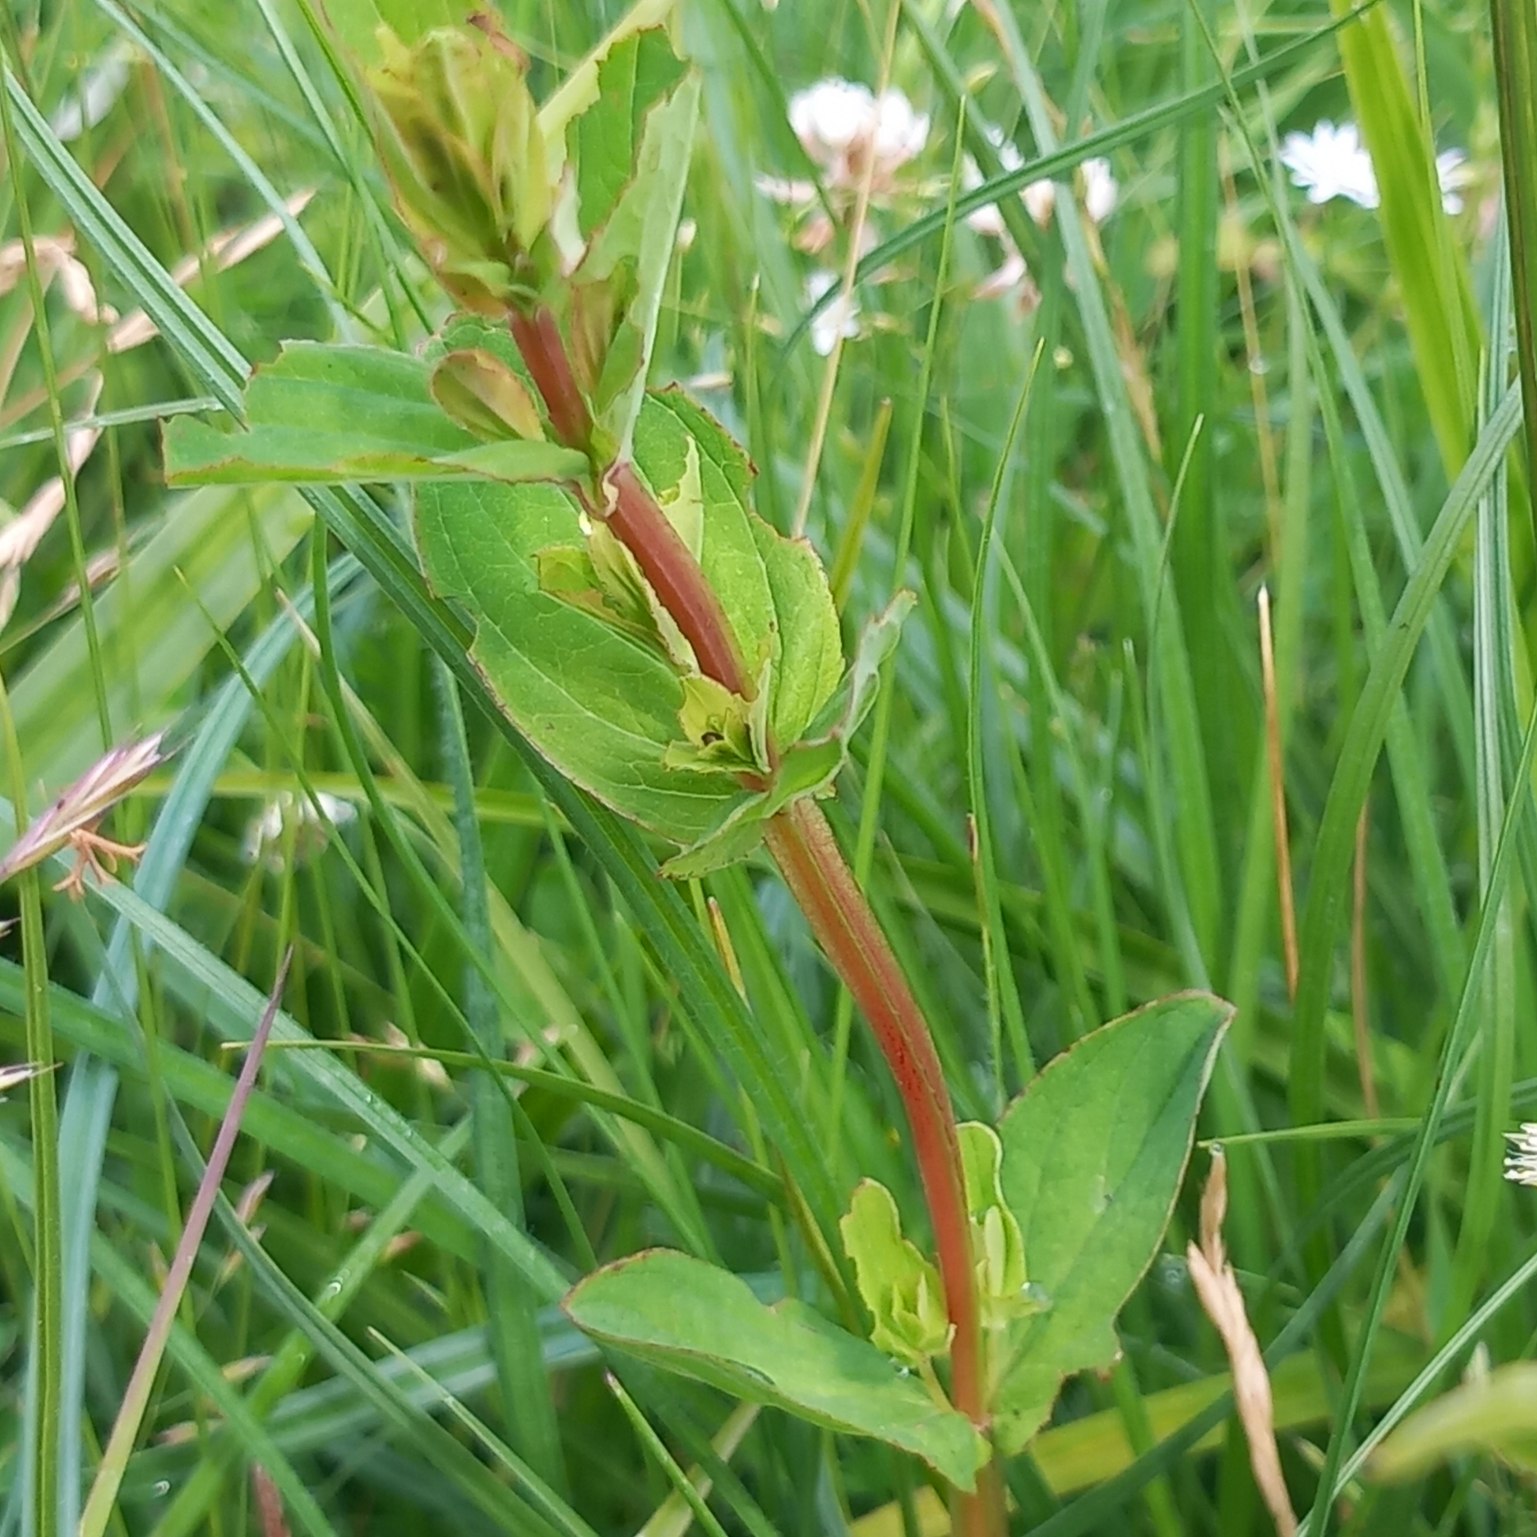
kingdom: Plantae
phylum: Tracheophyta
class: Magnoliopsida
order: Malpighiales
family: Hypericaceae
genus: Hypericum
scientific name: Hypericum tetrapterum
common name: Vinget perikon
